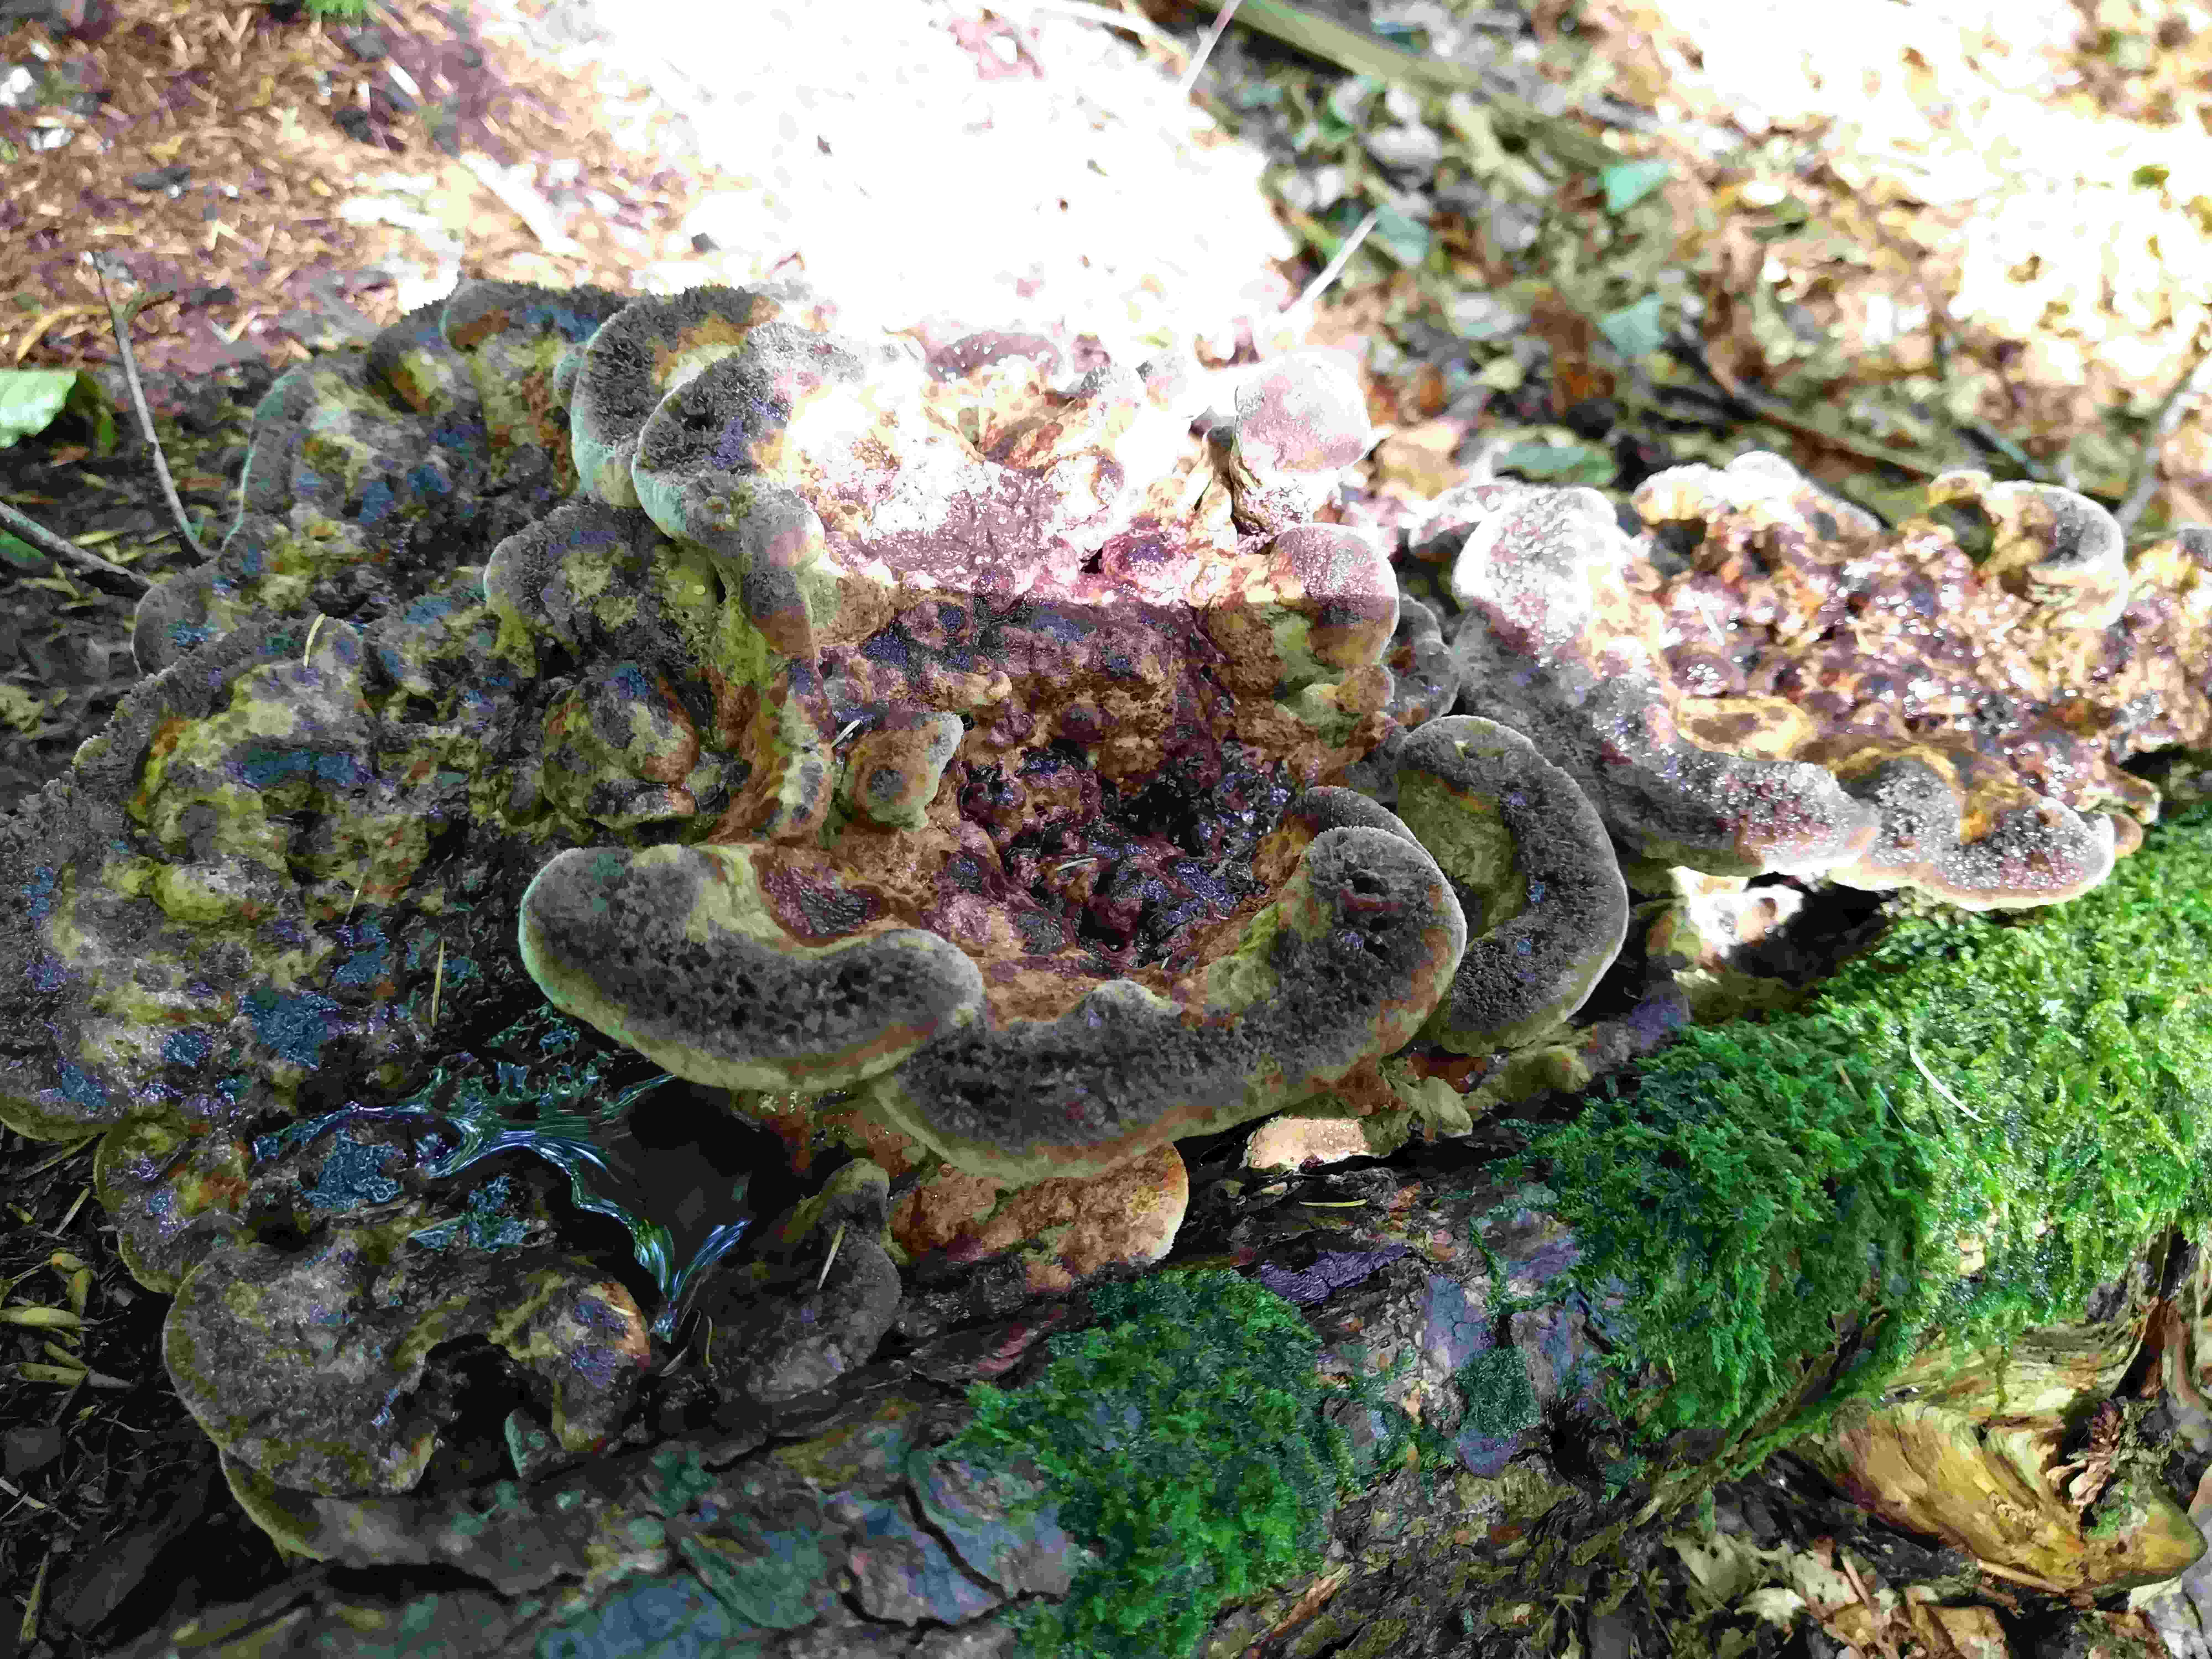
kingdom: Fungi
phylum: Basidiomycota
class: Agaricomycetes
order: Polyporales
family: Laetiporaceae
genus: Phaeolus
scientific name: Phaeolus schweinitzii
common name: brunporesvamp
